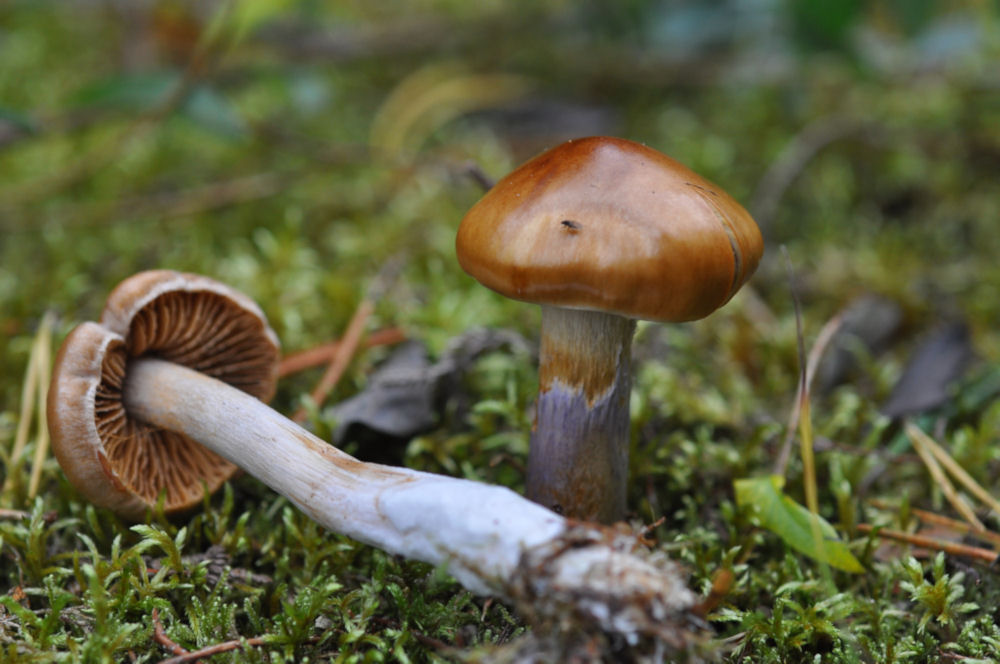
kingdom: Fungi
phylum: Basidiomycota
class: Agaricomycetes
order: Agaricales
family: Cortinariaceae
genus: Cortinarius
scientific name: Cortinarius collinitus
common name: spættet slørhat
